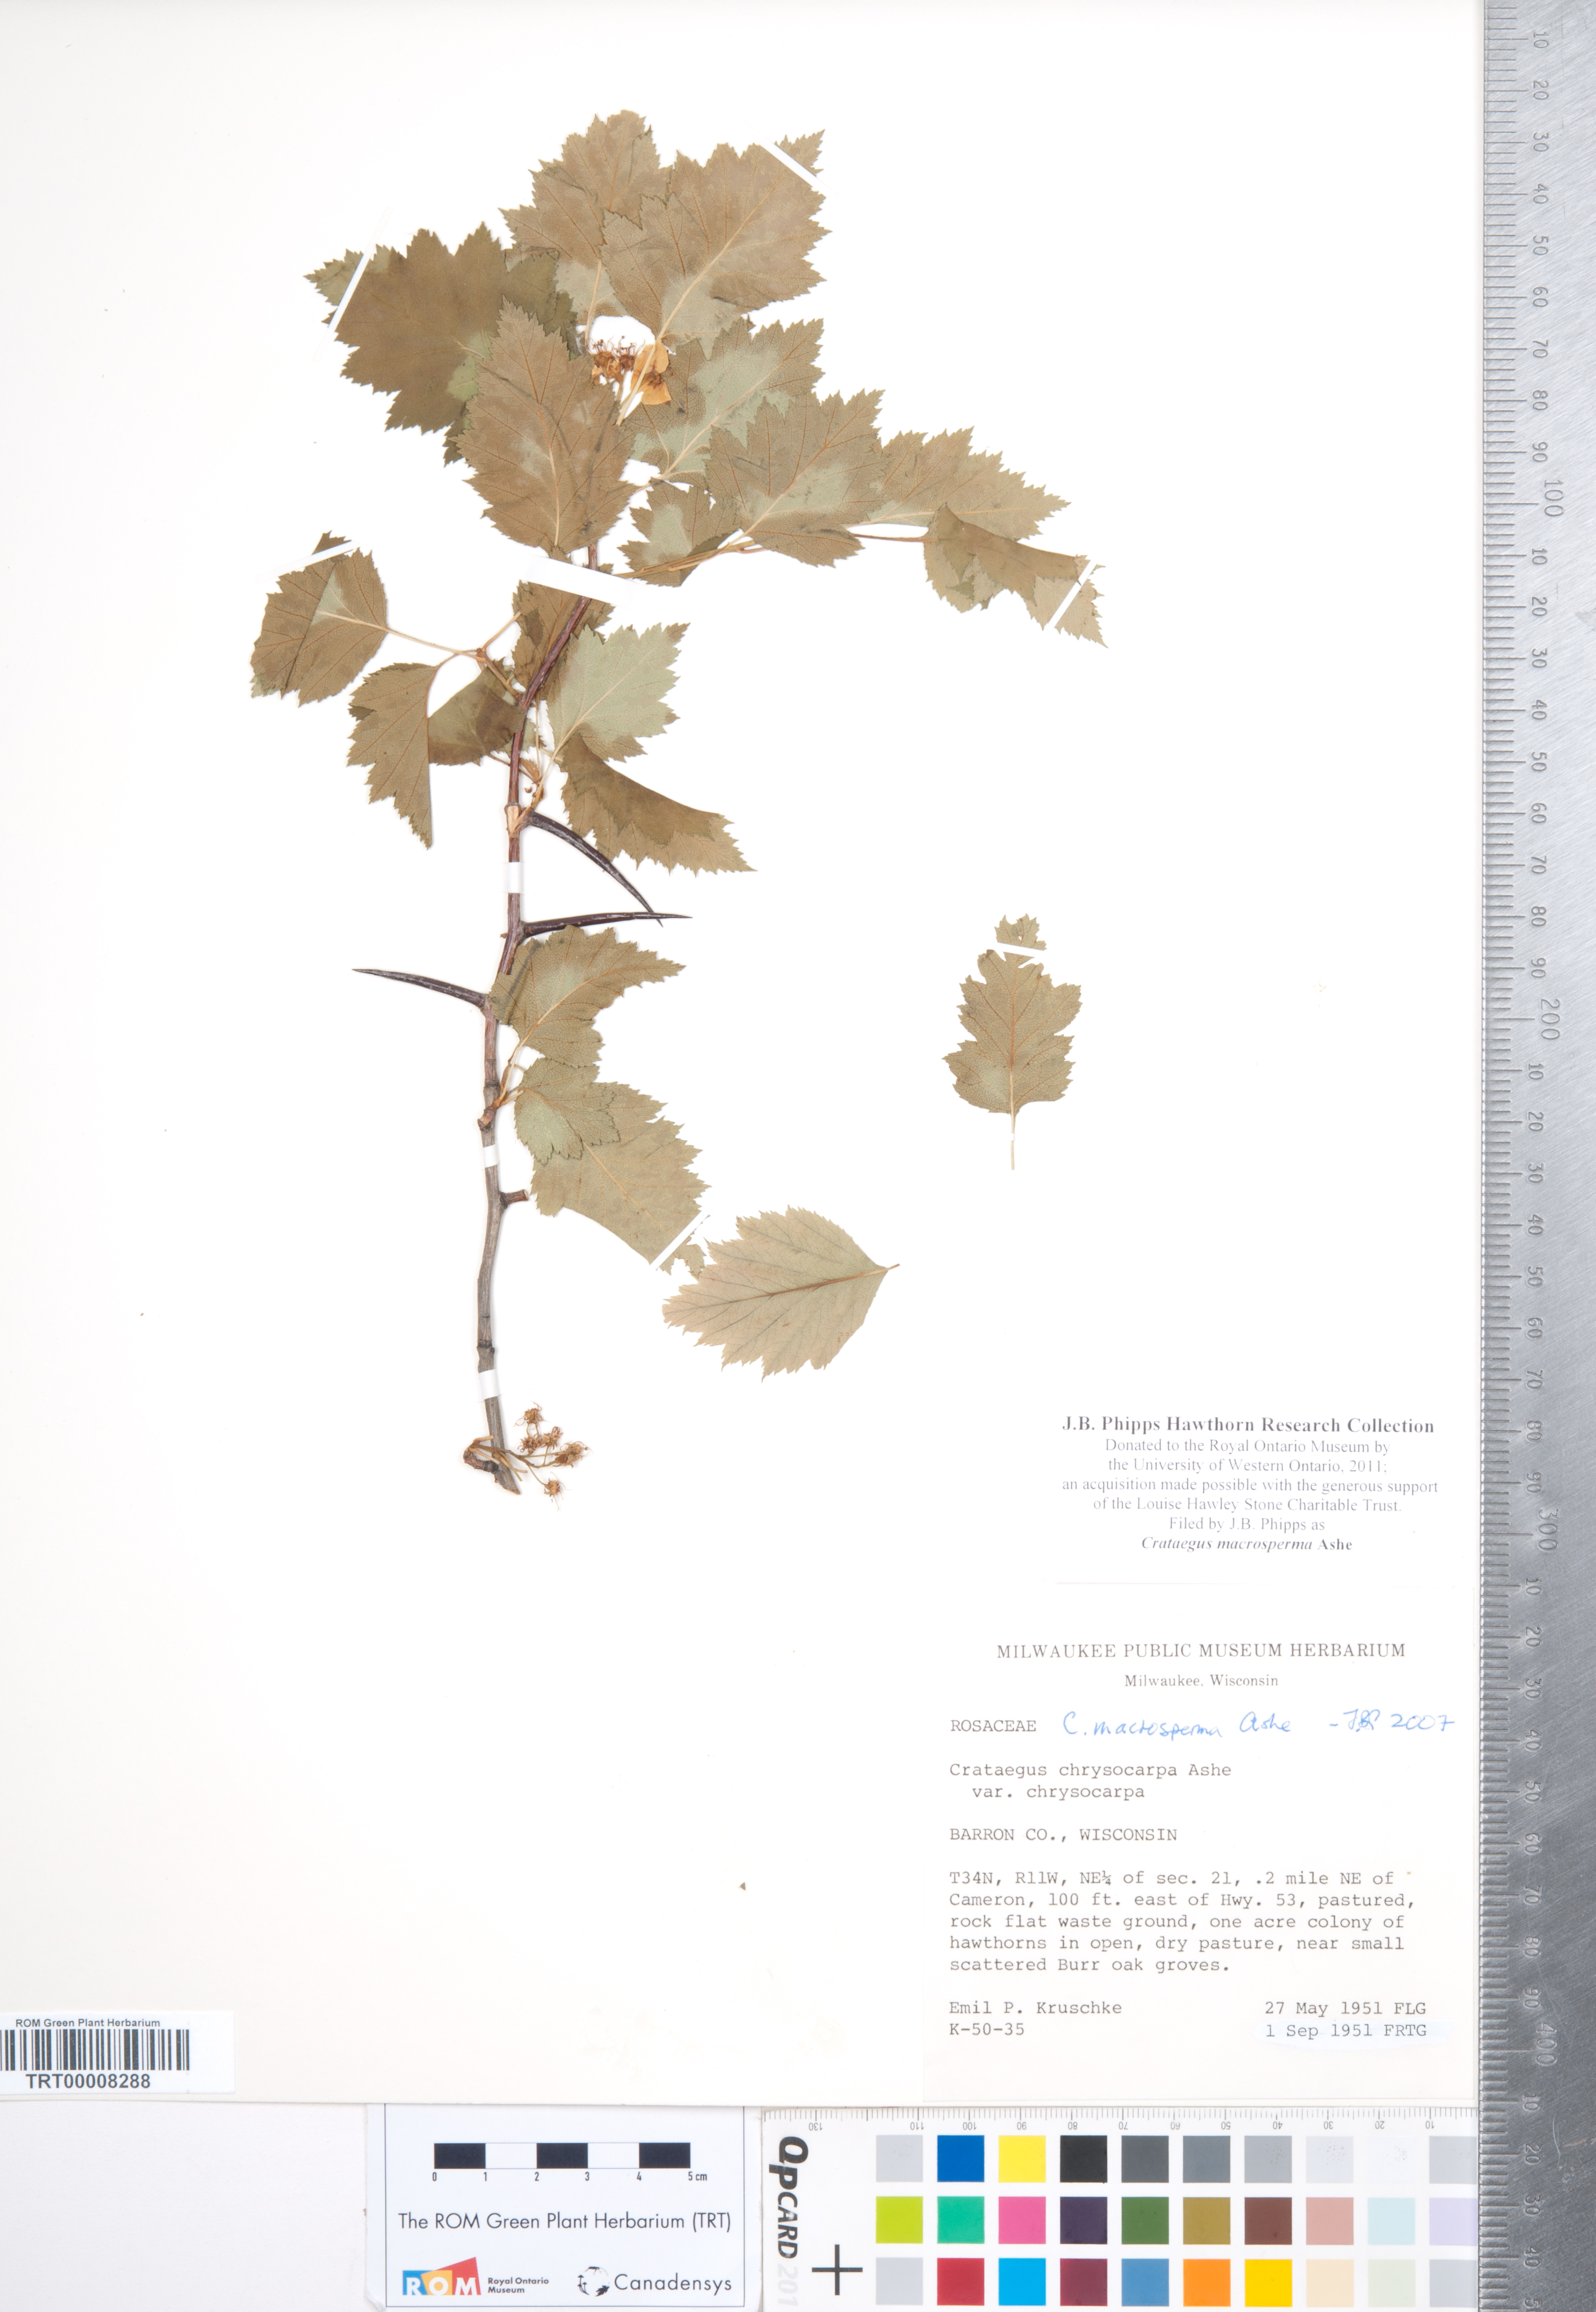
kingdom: Plantae
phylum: Tracheophyta
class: Magnoliopsida
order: Rosales
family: Rosaceae
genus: Crataegus
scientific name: Crataegus macrosperma
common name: Variable hawthorn
